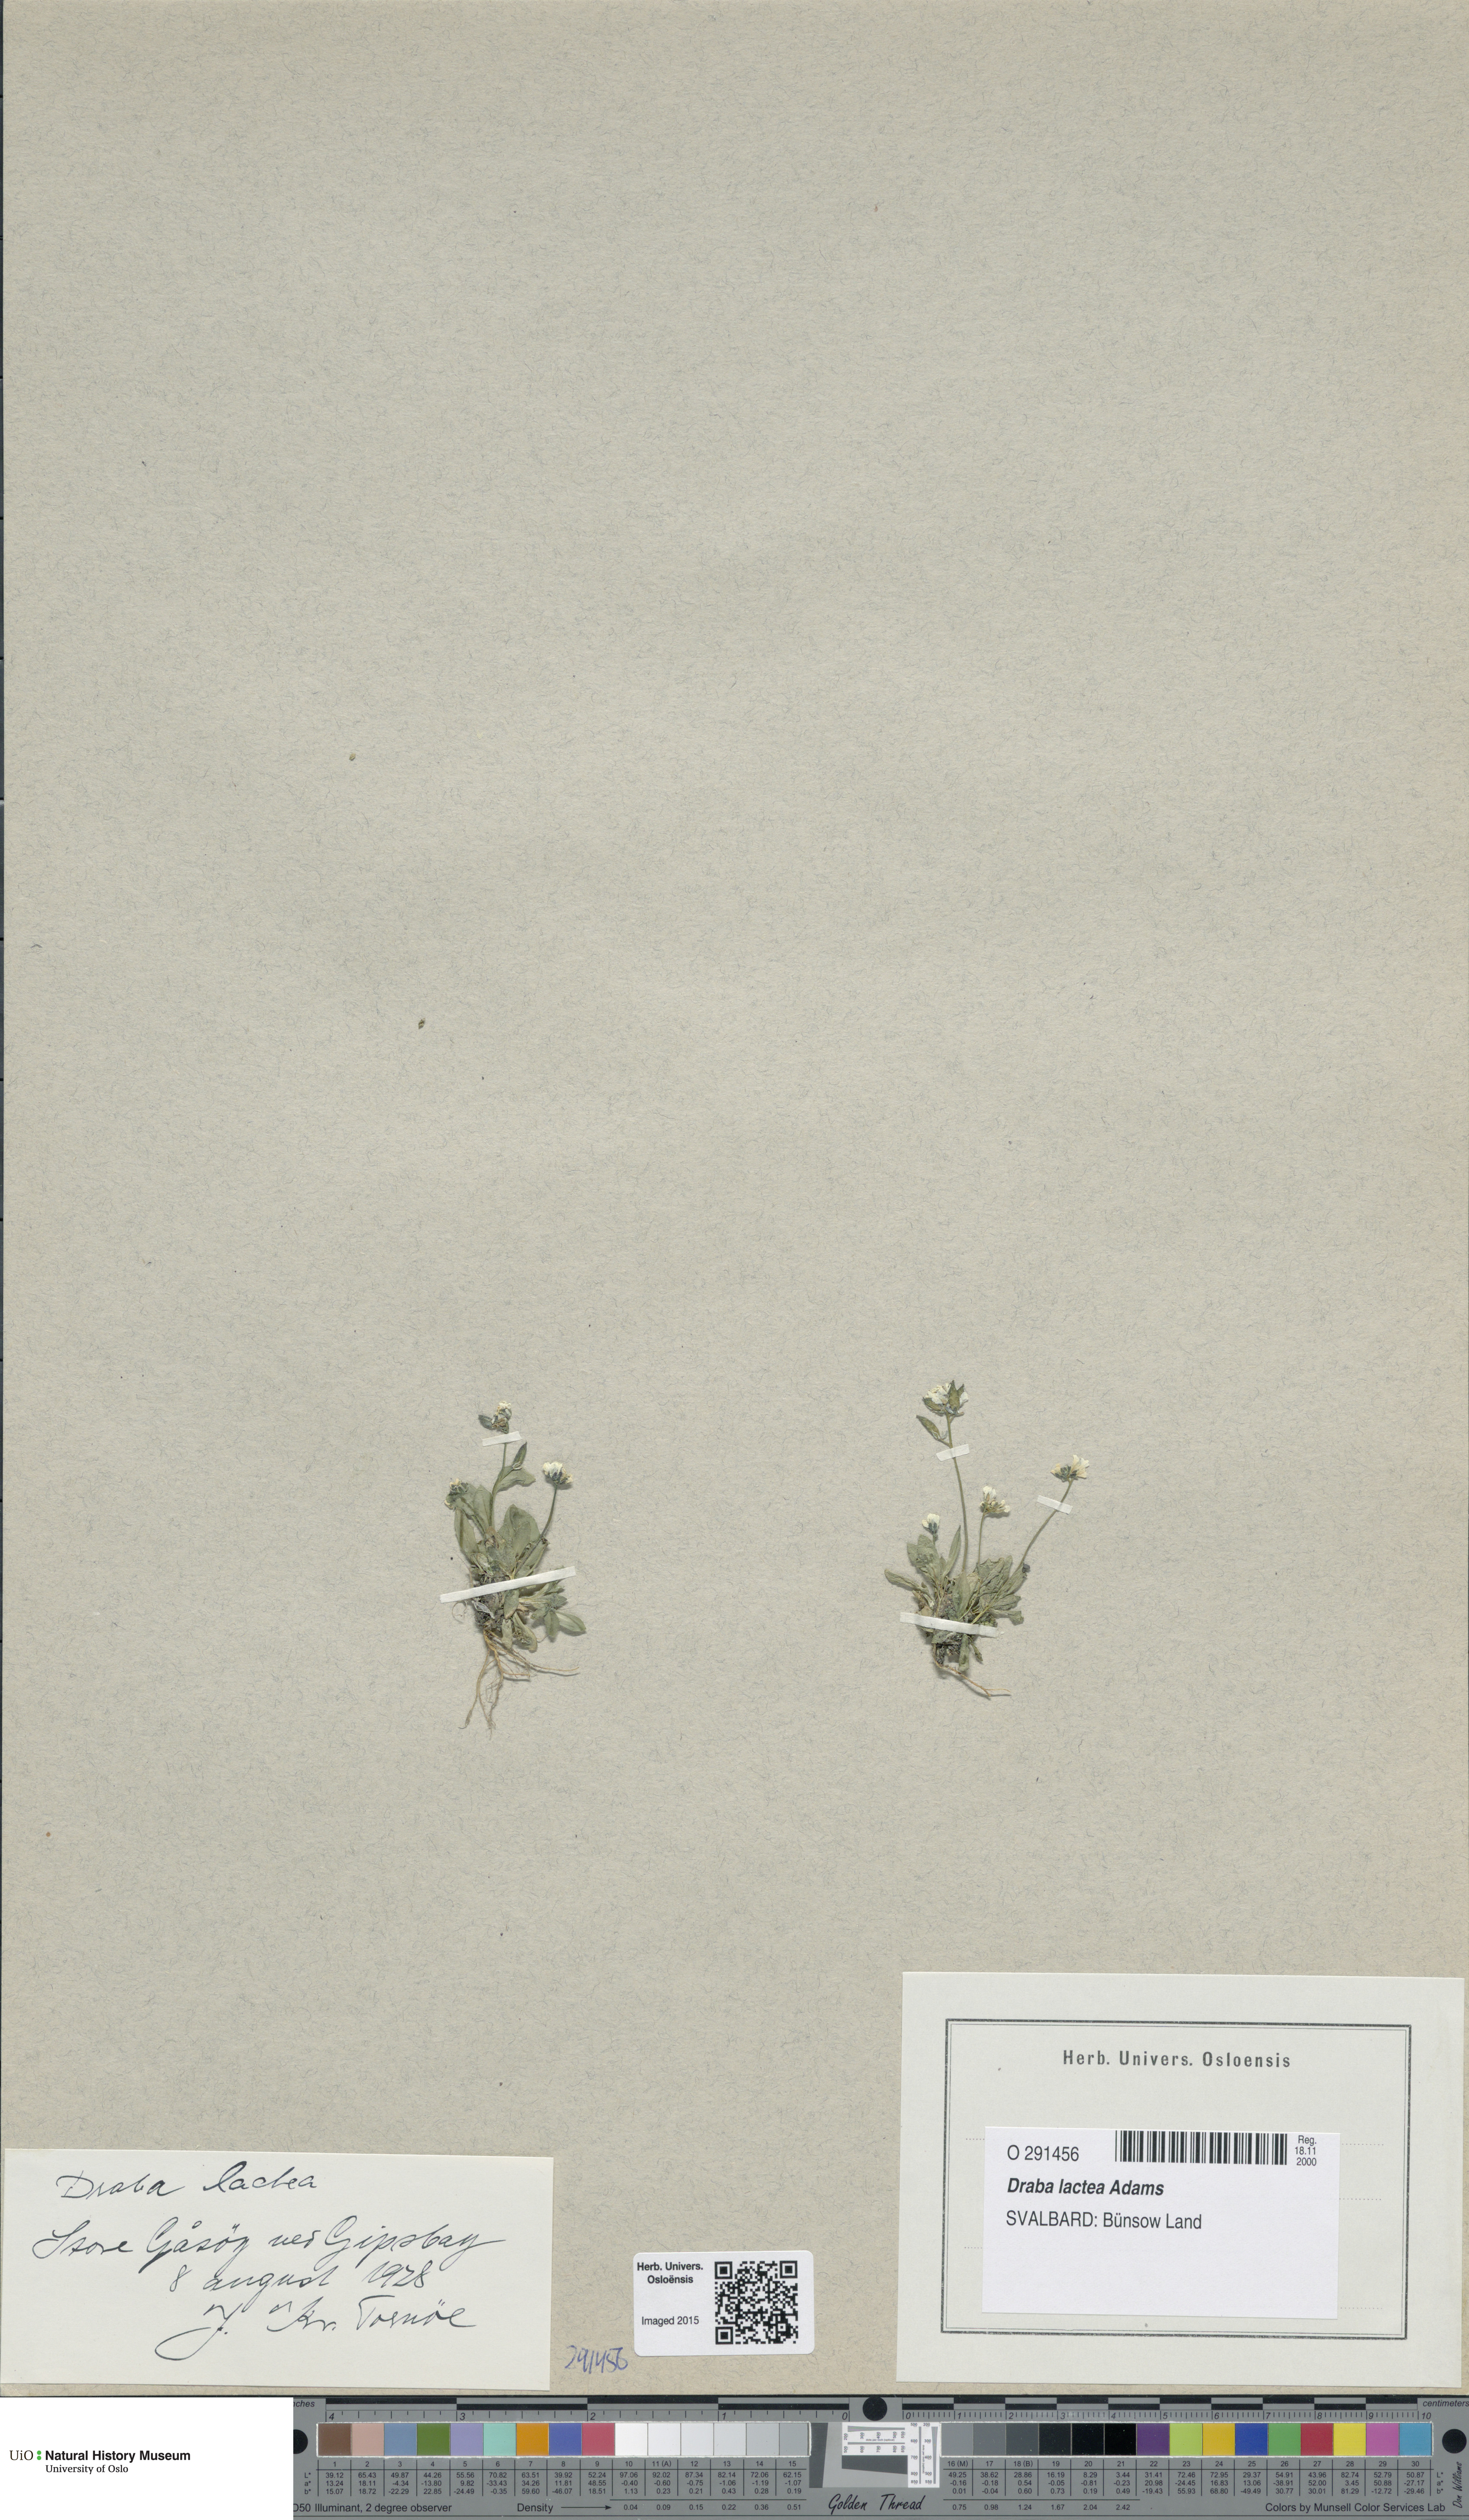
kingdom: Plantae
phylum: Tracheophyta
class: Magnoliopsida
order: Brassicales
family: Brassicaceae
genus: Draba
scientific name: Draba lactea
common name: Milky draba
